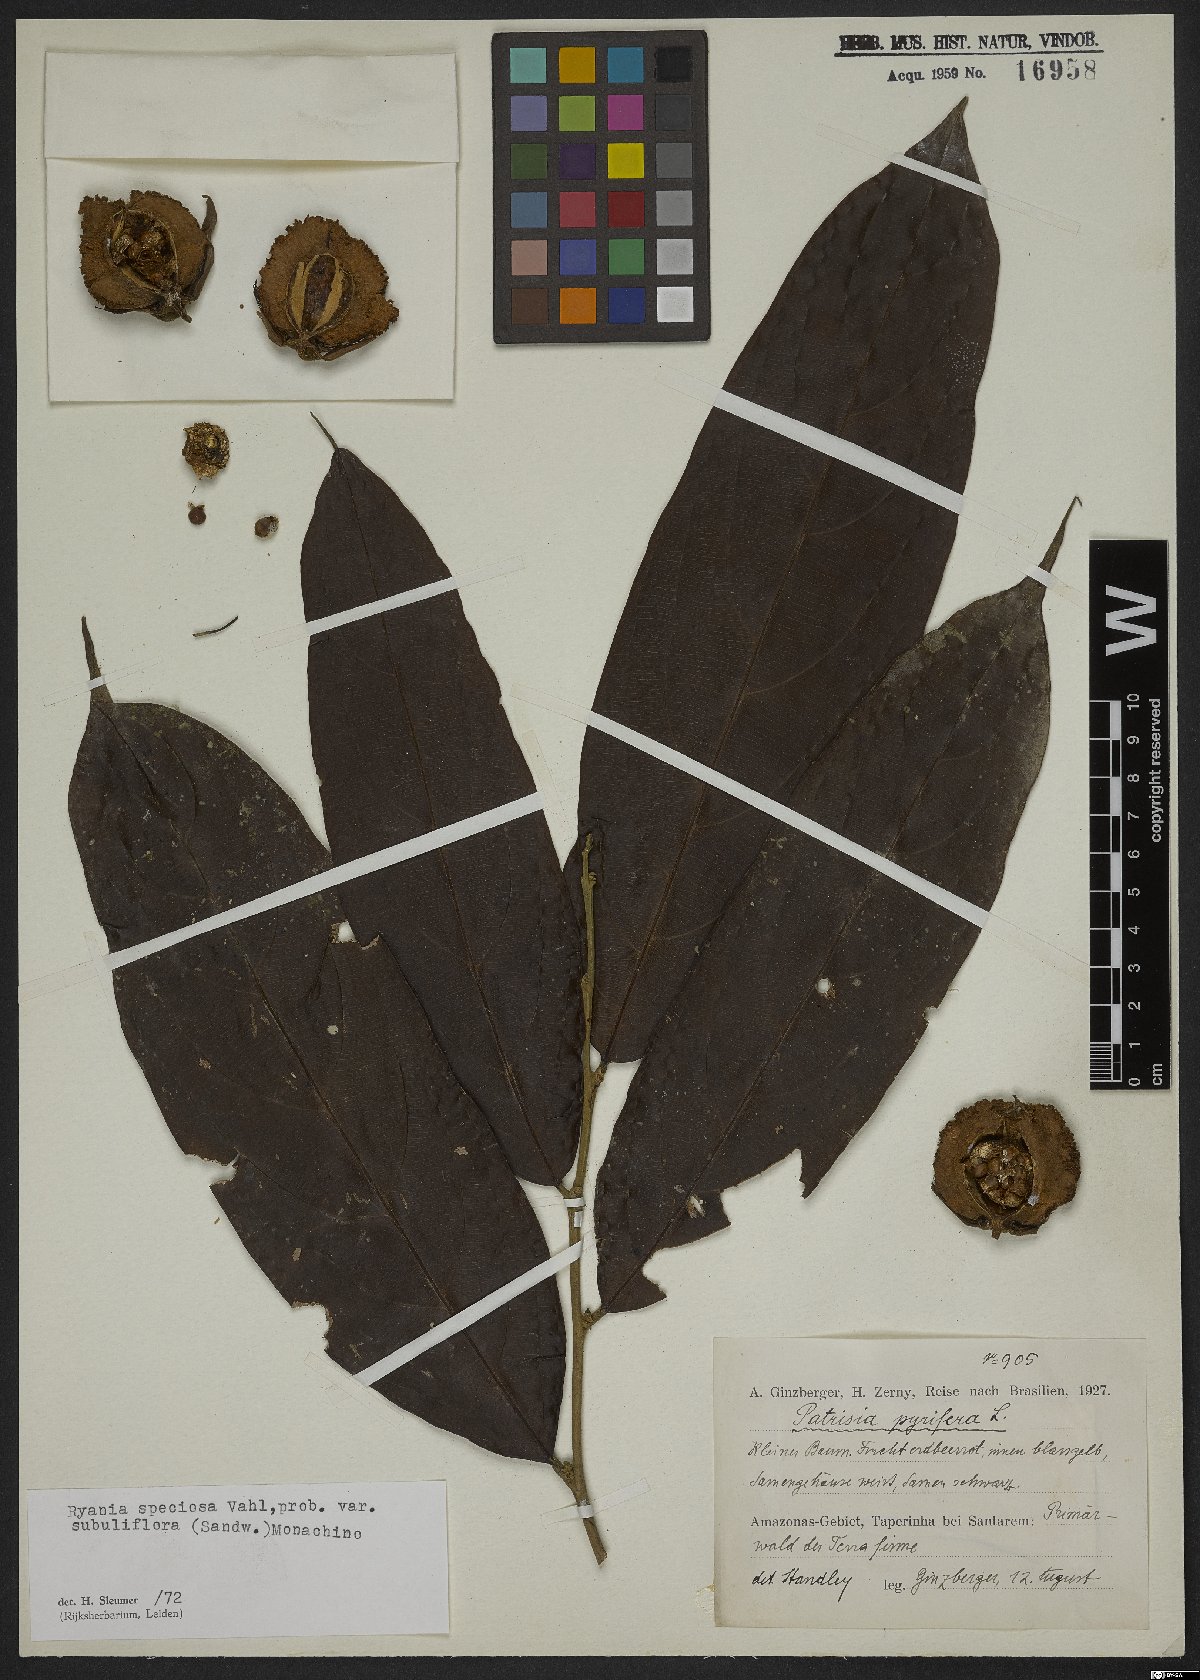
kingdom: Plantae
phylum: Tracheophyta
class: Magnoliopsida
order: Malpighiales
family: Salicaceae
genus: Ryania
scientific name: Ryania speciosa
